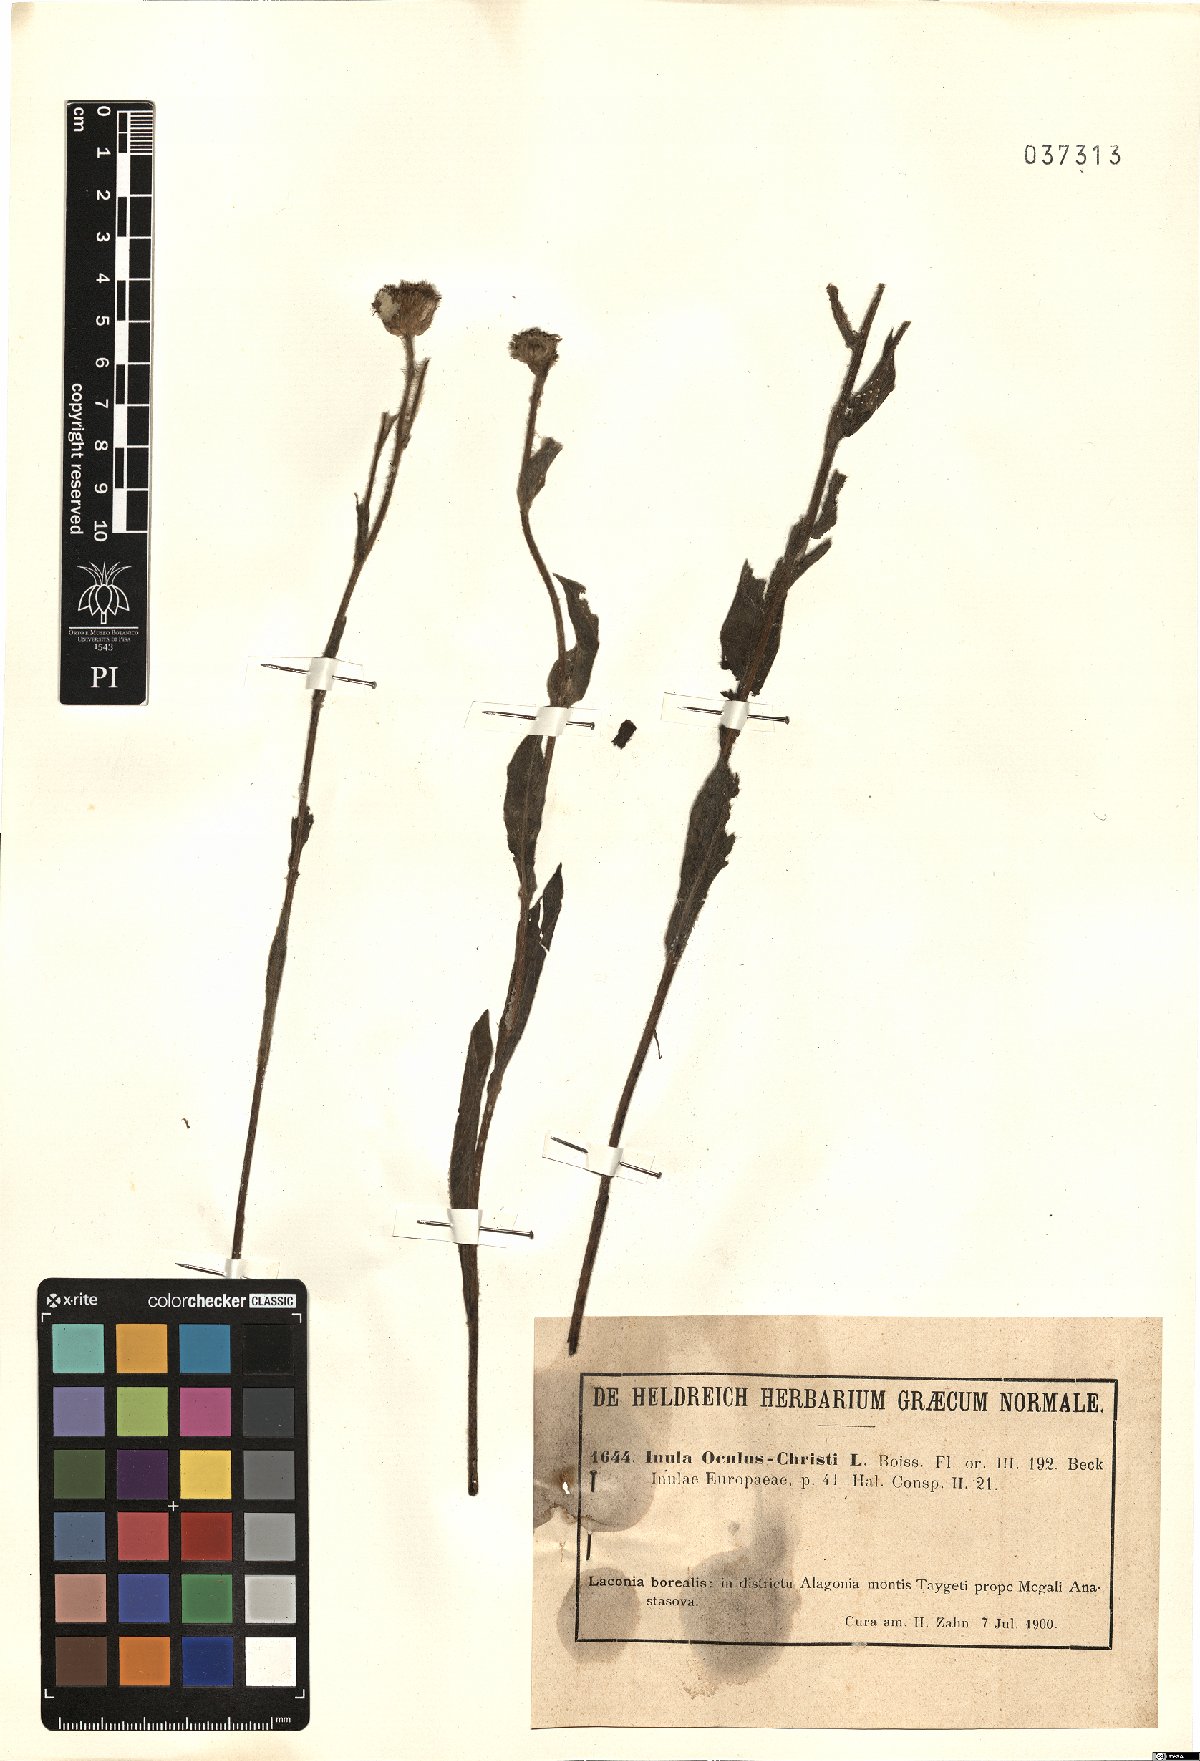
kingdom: Plantae
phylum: Tracheophyta
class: Magnoliopsida
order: Asterales
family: Asteraceae
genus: Pentanema
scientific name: Pentanema oculus-christi
